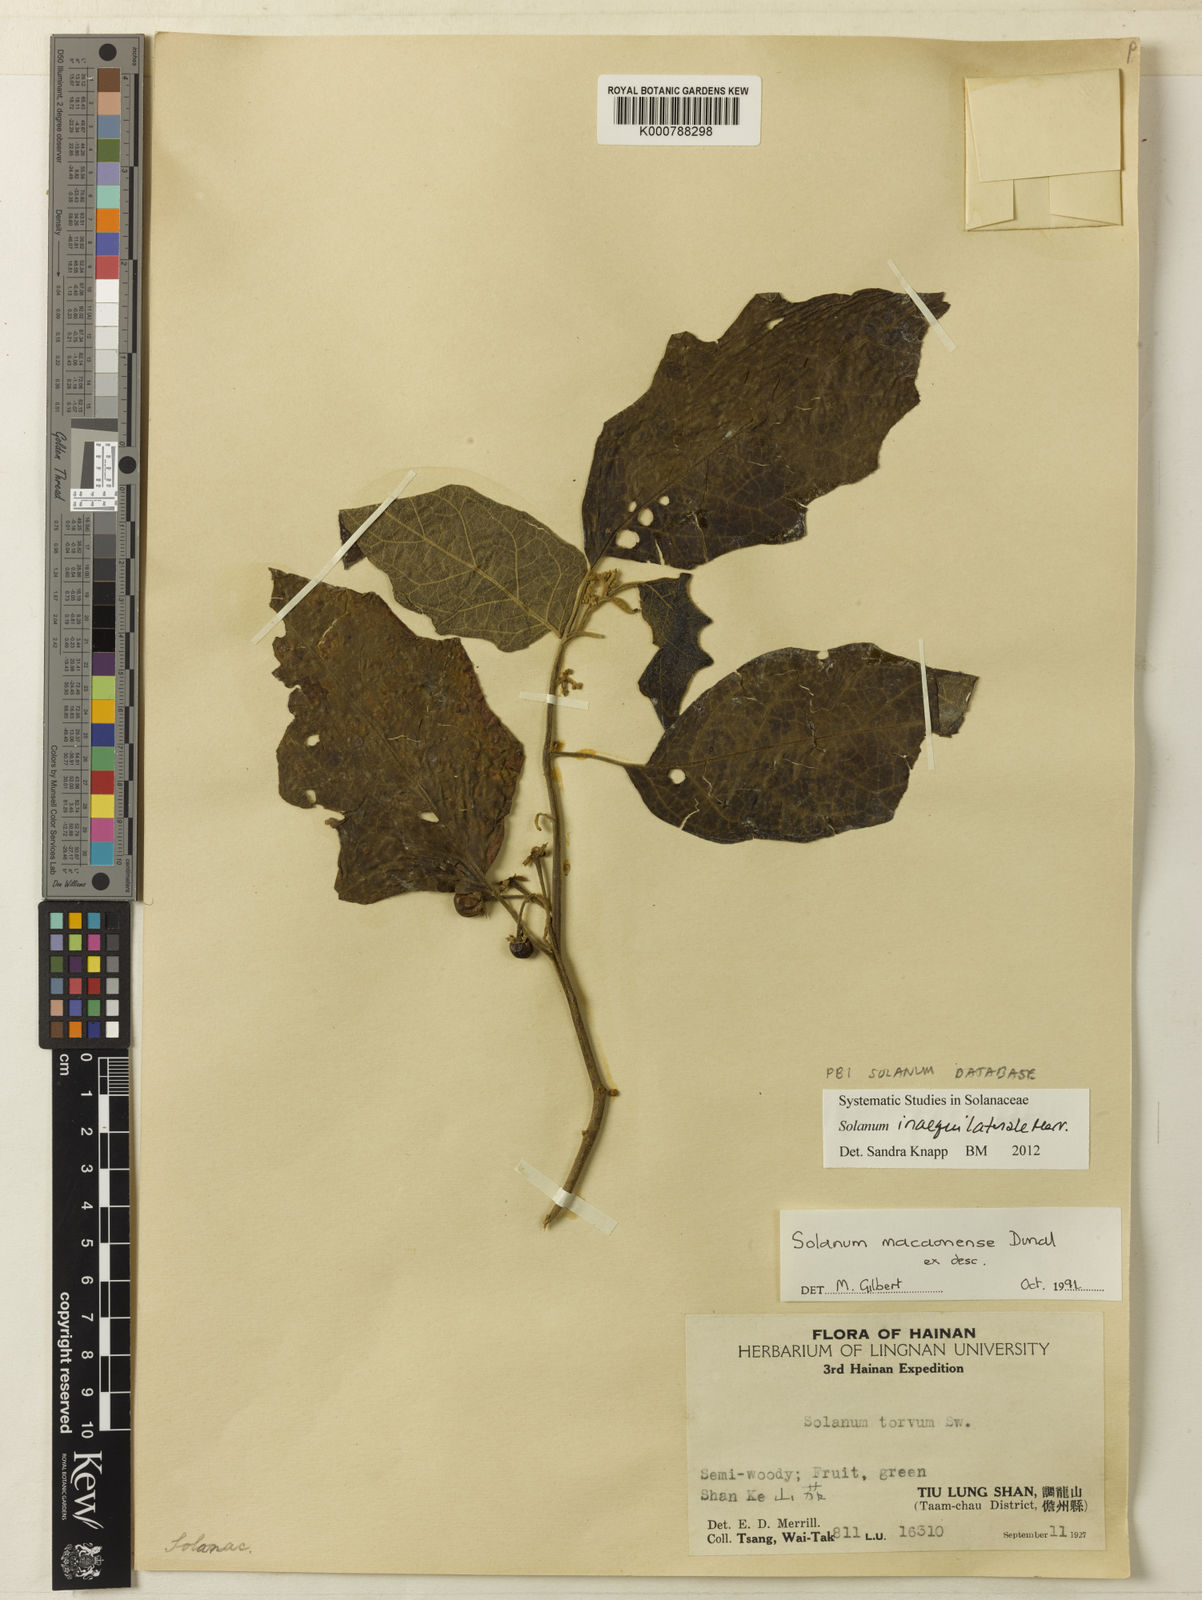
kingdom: Plantae
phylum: Tracheophyta
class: Magnoliopsida
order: Solanales
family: Solanaceae
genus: Solanum
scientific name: Solanum pseudosaponaceum
